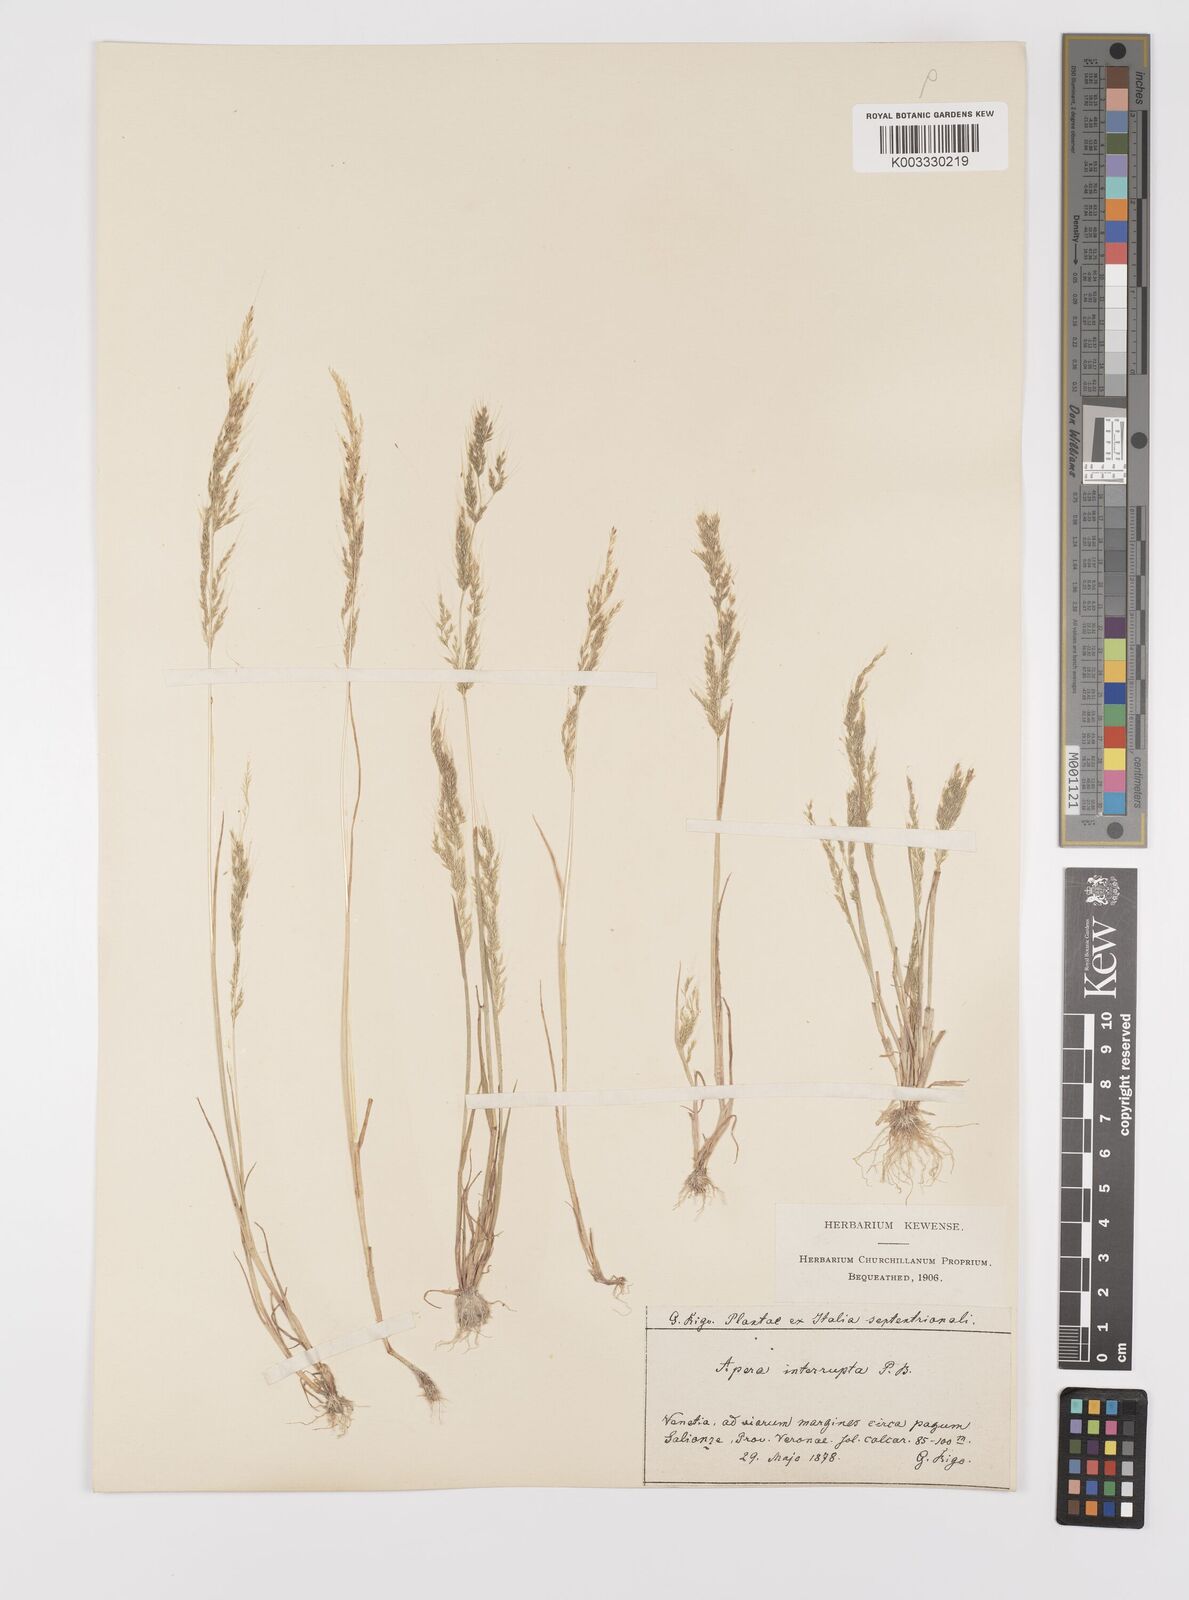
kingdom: Plantae
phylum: Tracheophyta
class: Liliopsida
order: Poales
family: Poaceae
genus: Apera
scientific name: Apera interrupta
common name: Dense silky-bent
